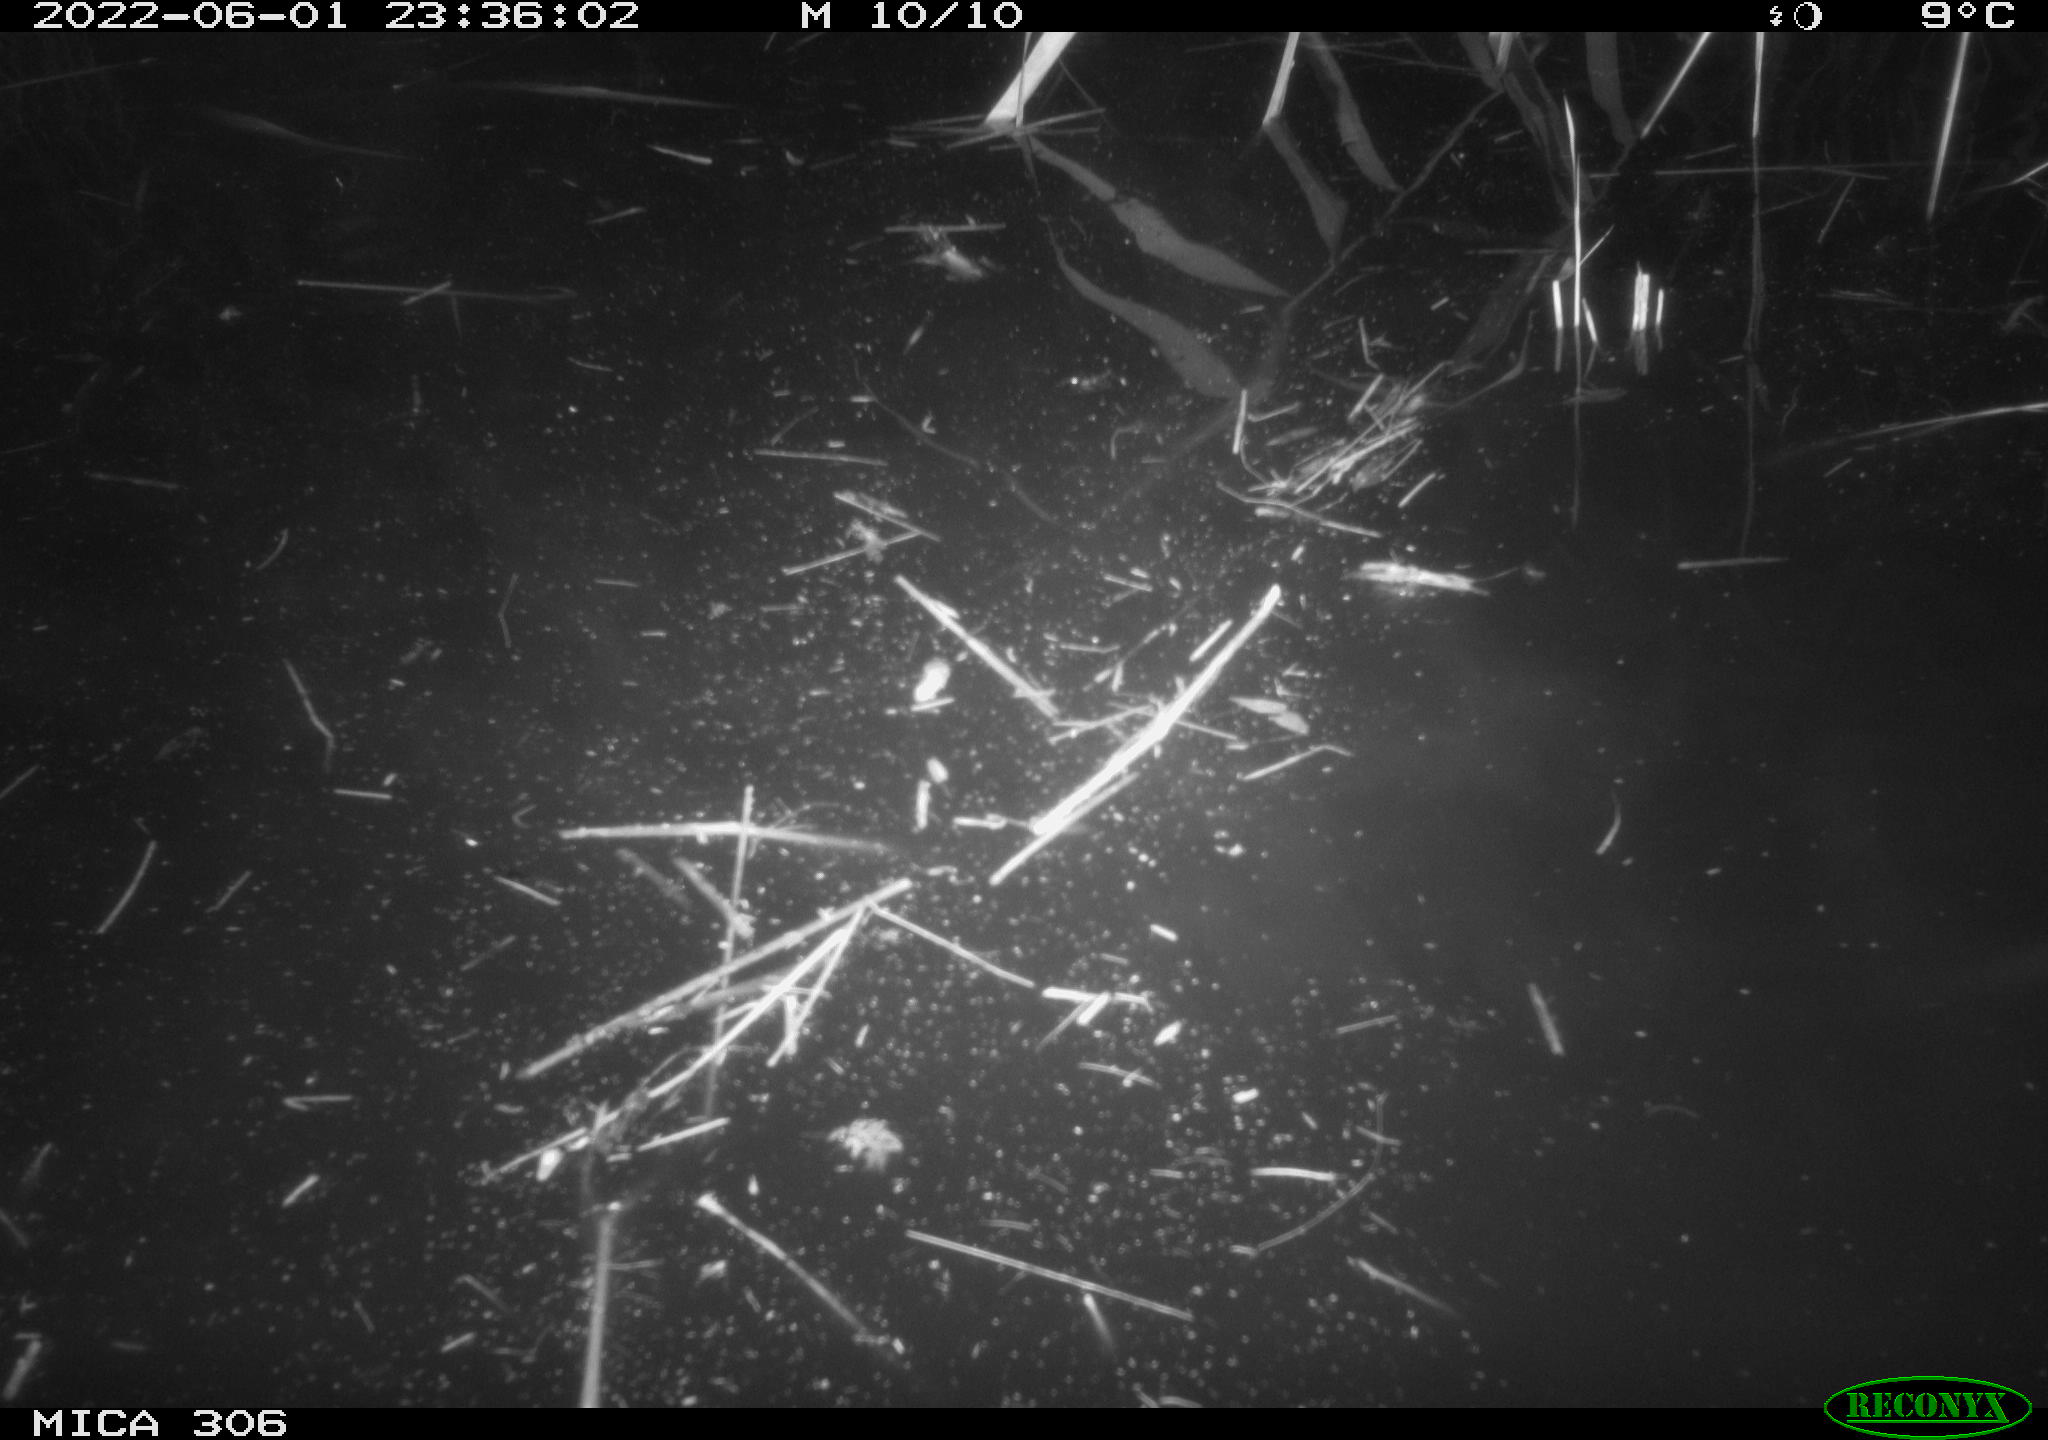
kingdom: Animalia
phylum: Chordata
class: Aves
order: Anseriformes
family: Anatidae
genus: Anas
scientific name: Anas platyrhynchos
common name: Mallard
